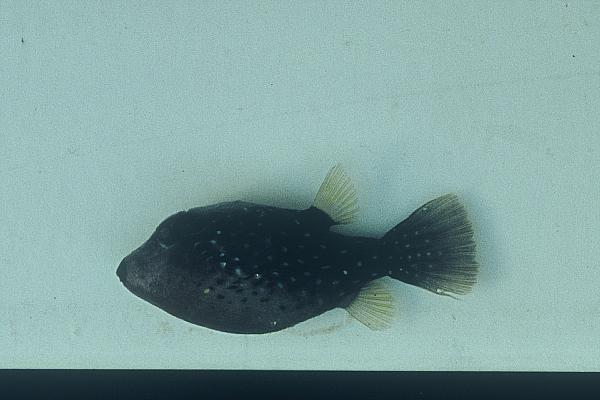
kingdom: Animalia
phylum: Chordata
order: Tetraodontiformes
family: Tetraodontidae
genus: Canthigaster
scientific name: Canthigaster amboinensis
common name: Ambon pufferfish
